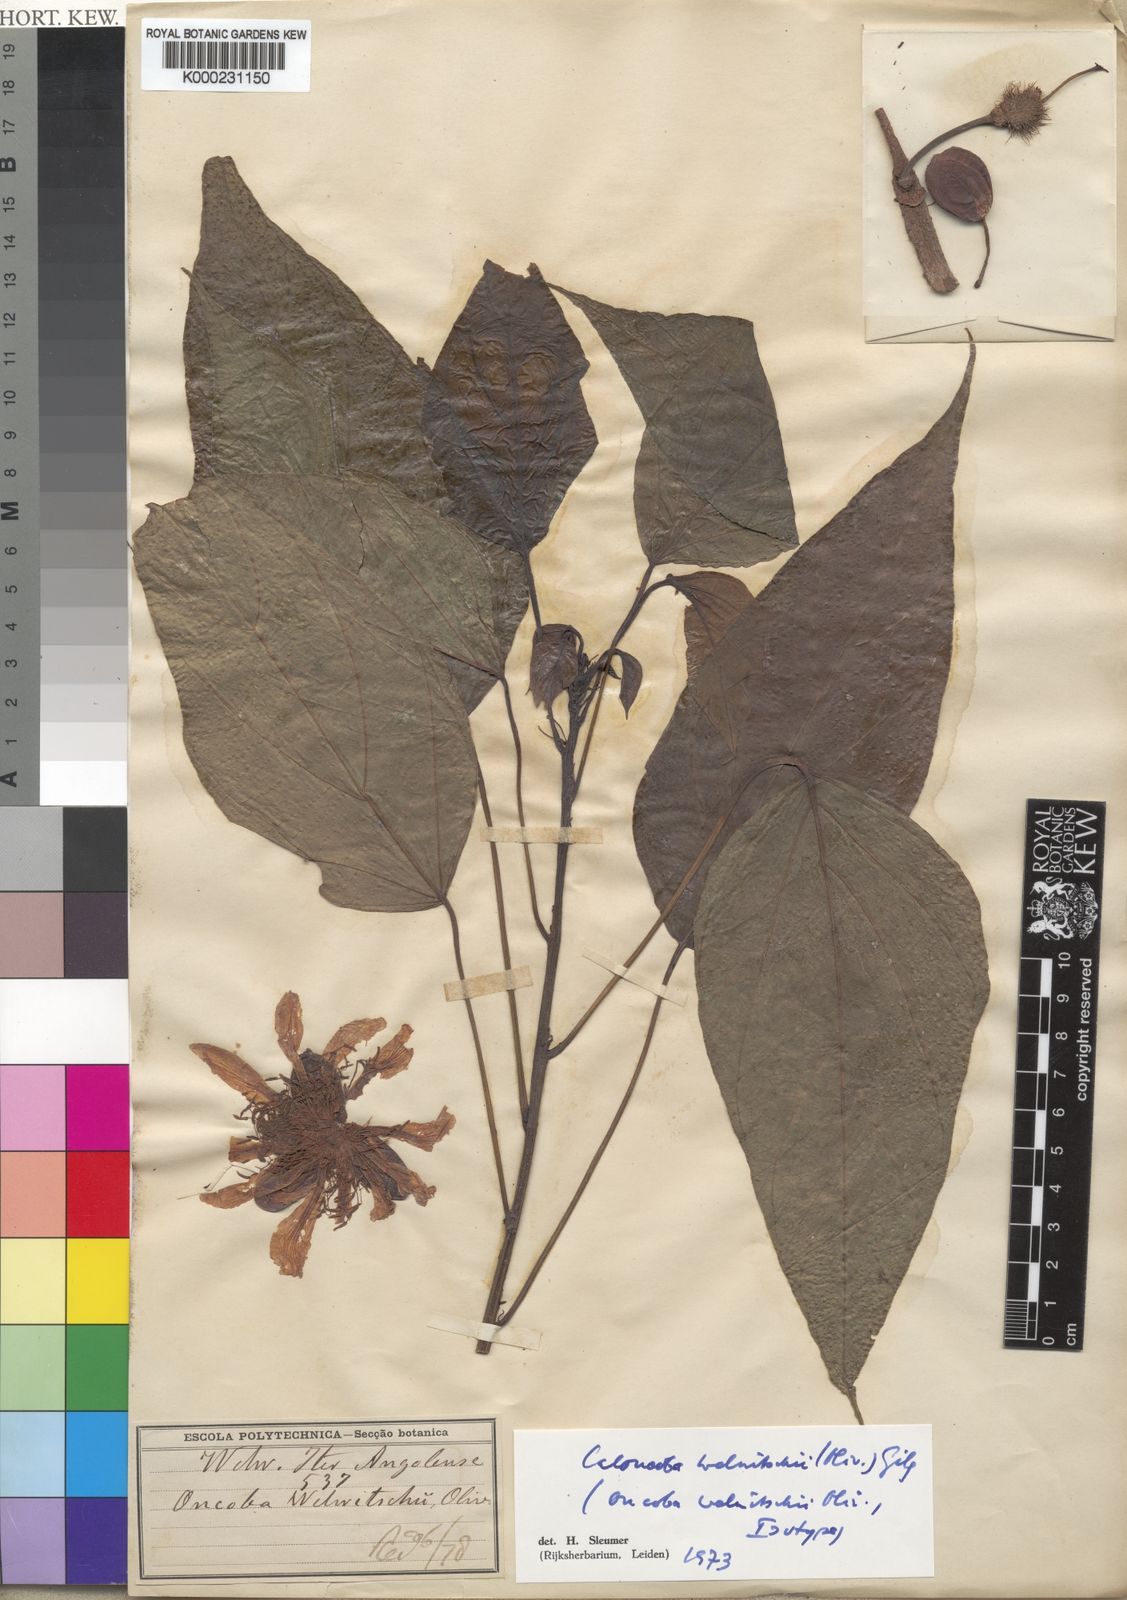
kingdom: Plantae
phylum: Tracheophyta
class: Magnoliopsida
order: Malpighiales
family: Achariaceae
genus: Caloncoba
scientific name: Caloncoba welwitschii
